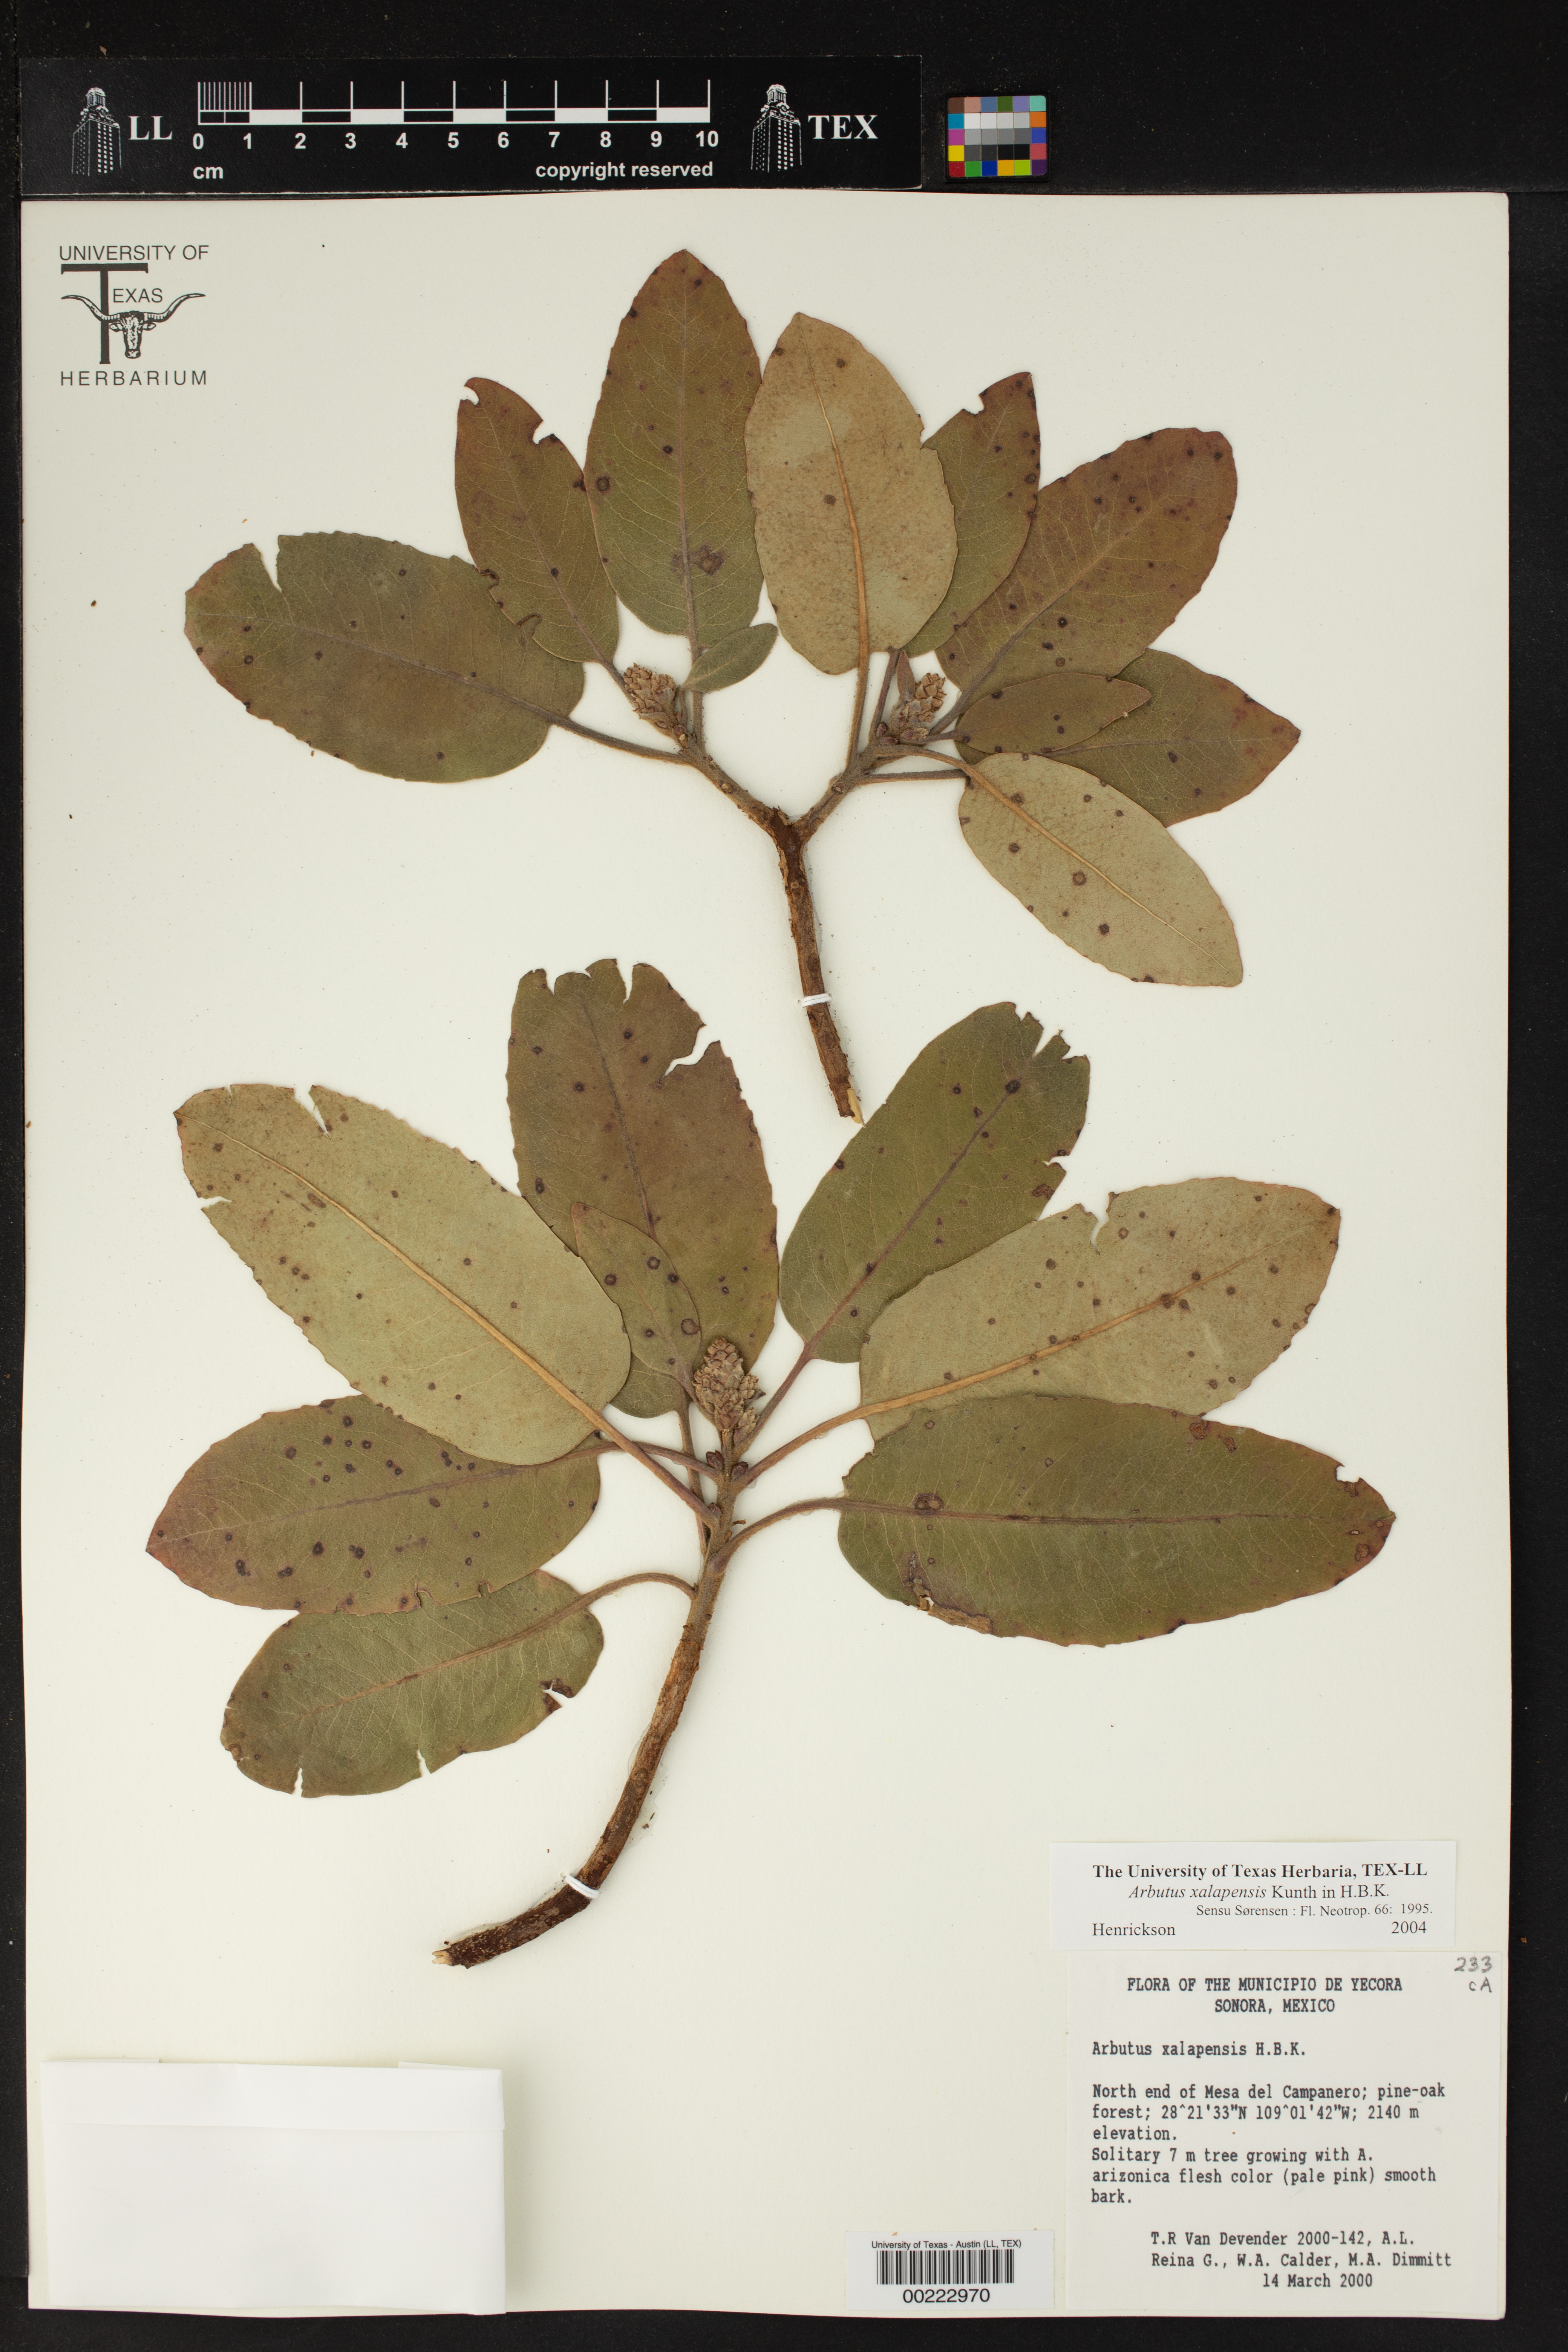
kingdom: Plantae
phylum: Tracheophyta
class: Magnoliopsida
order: Ericales
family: Ericaceae
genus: Arbutus
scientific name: Arbutus xalapensis
